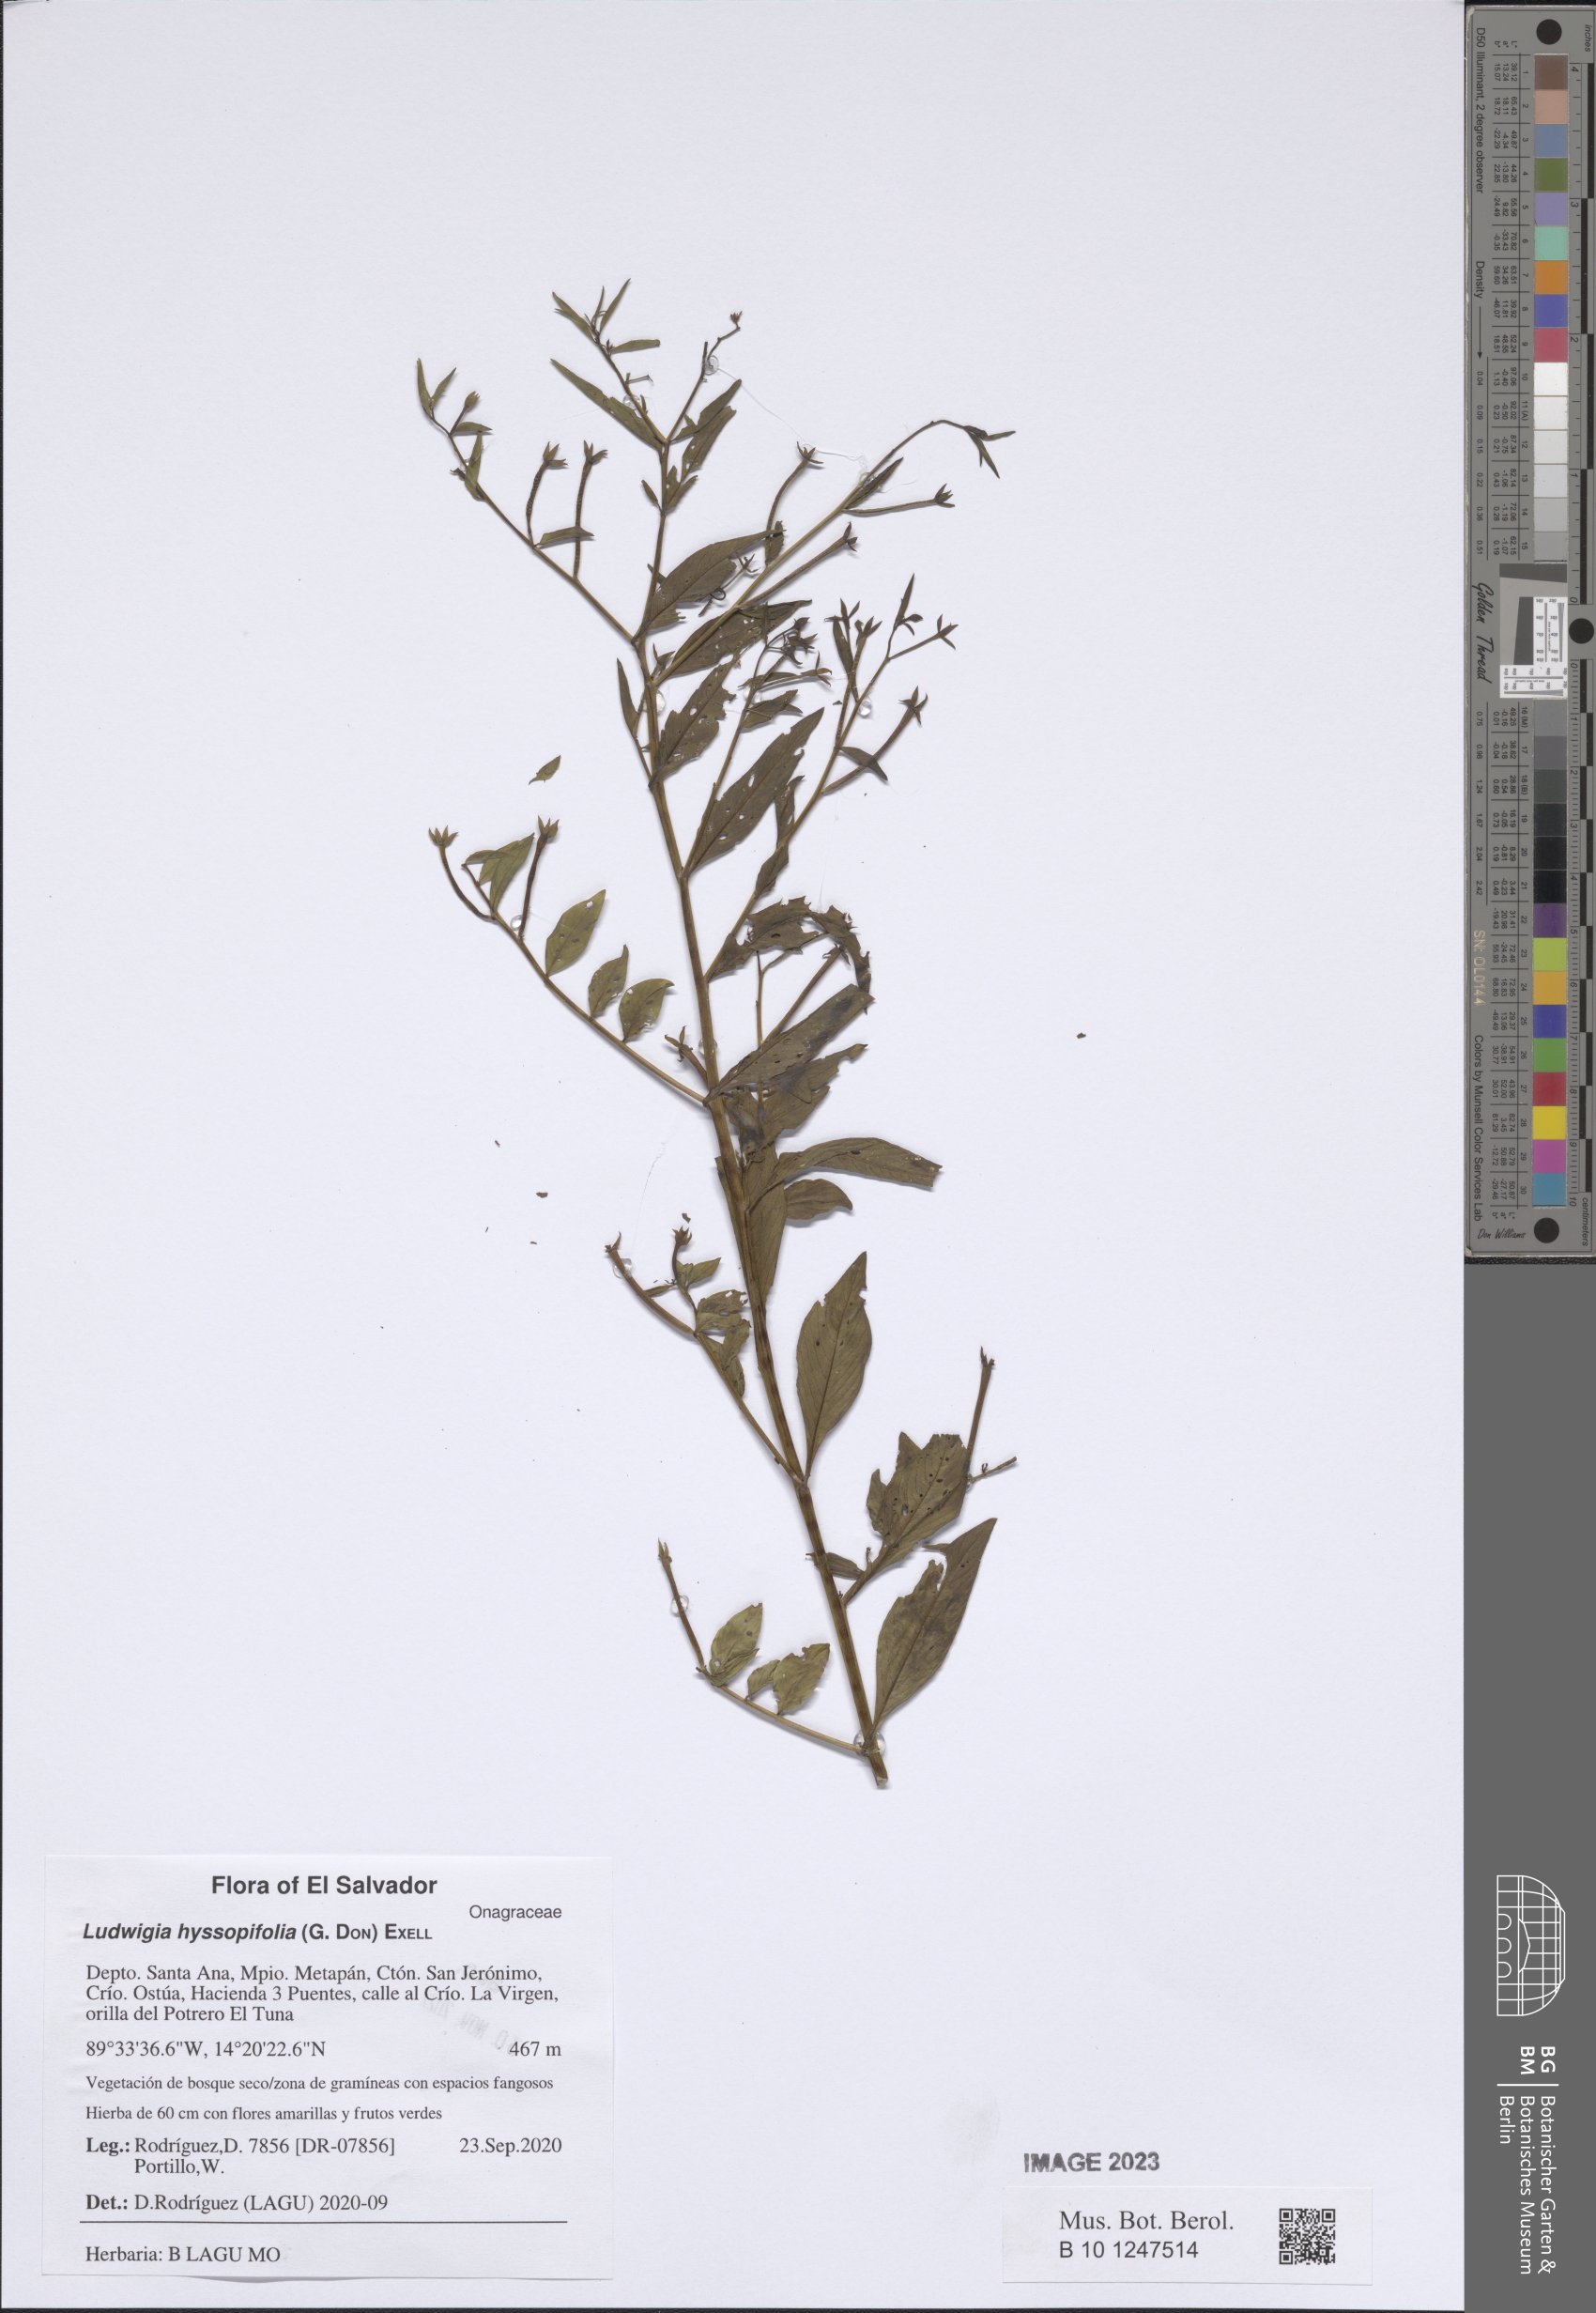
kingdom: Plantae
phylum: Tracheophyta
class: Magnoliopsida
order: Myrtales
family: Onagraceae
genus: Ludwigia
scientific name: Ludwigia hyssopifolia
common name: Linear leaf water primrose
